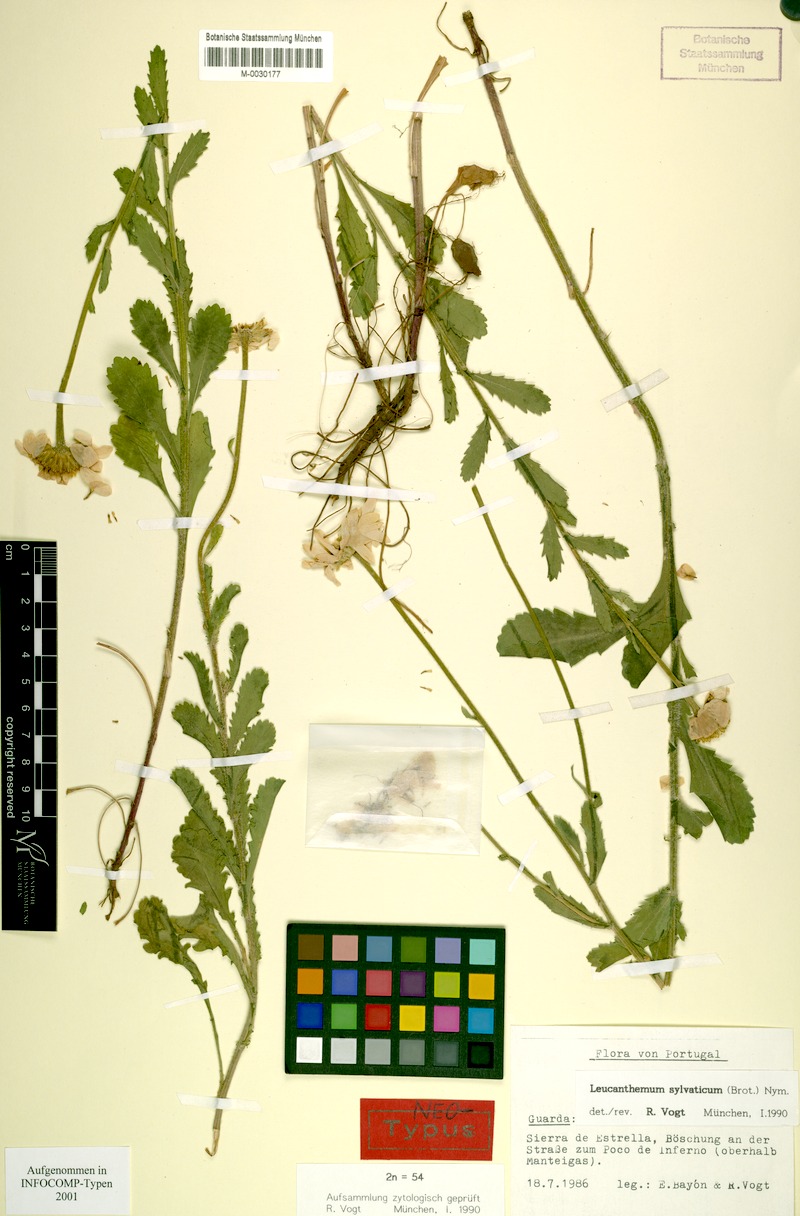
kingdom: Plantae
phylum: Tracheophyta
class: Magnoliopsida
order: Asterales
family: Asteraceae
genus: Leucanthemum
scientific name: Leucanthemum sylvaticum
